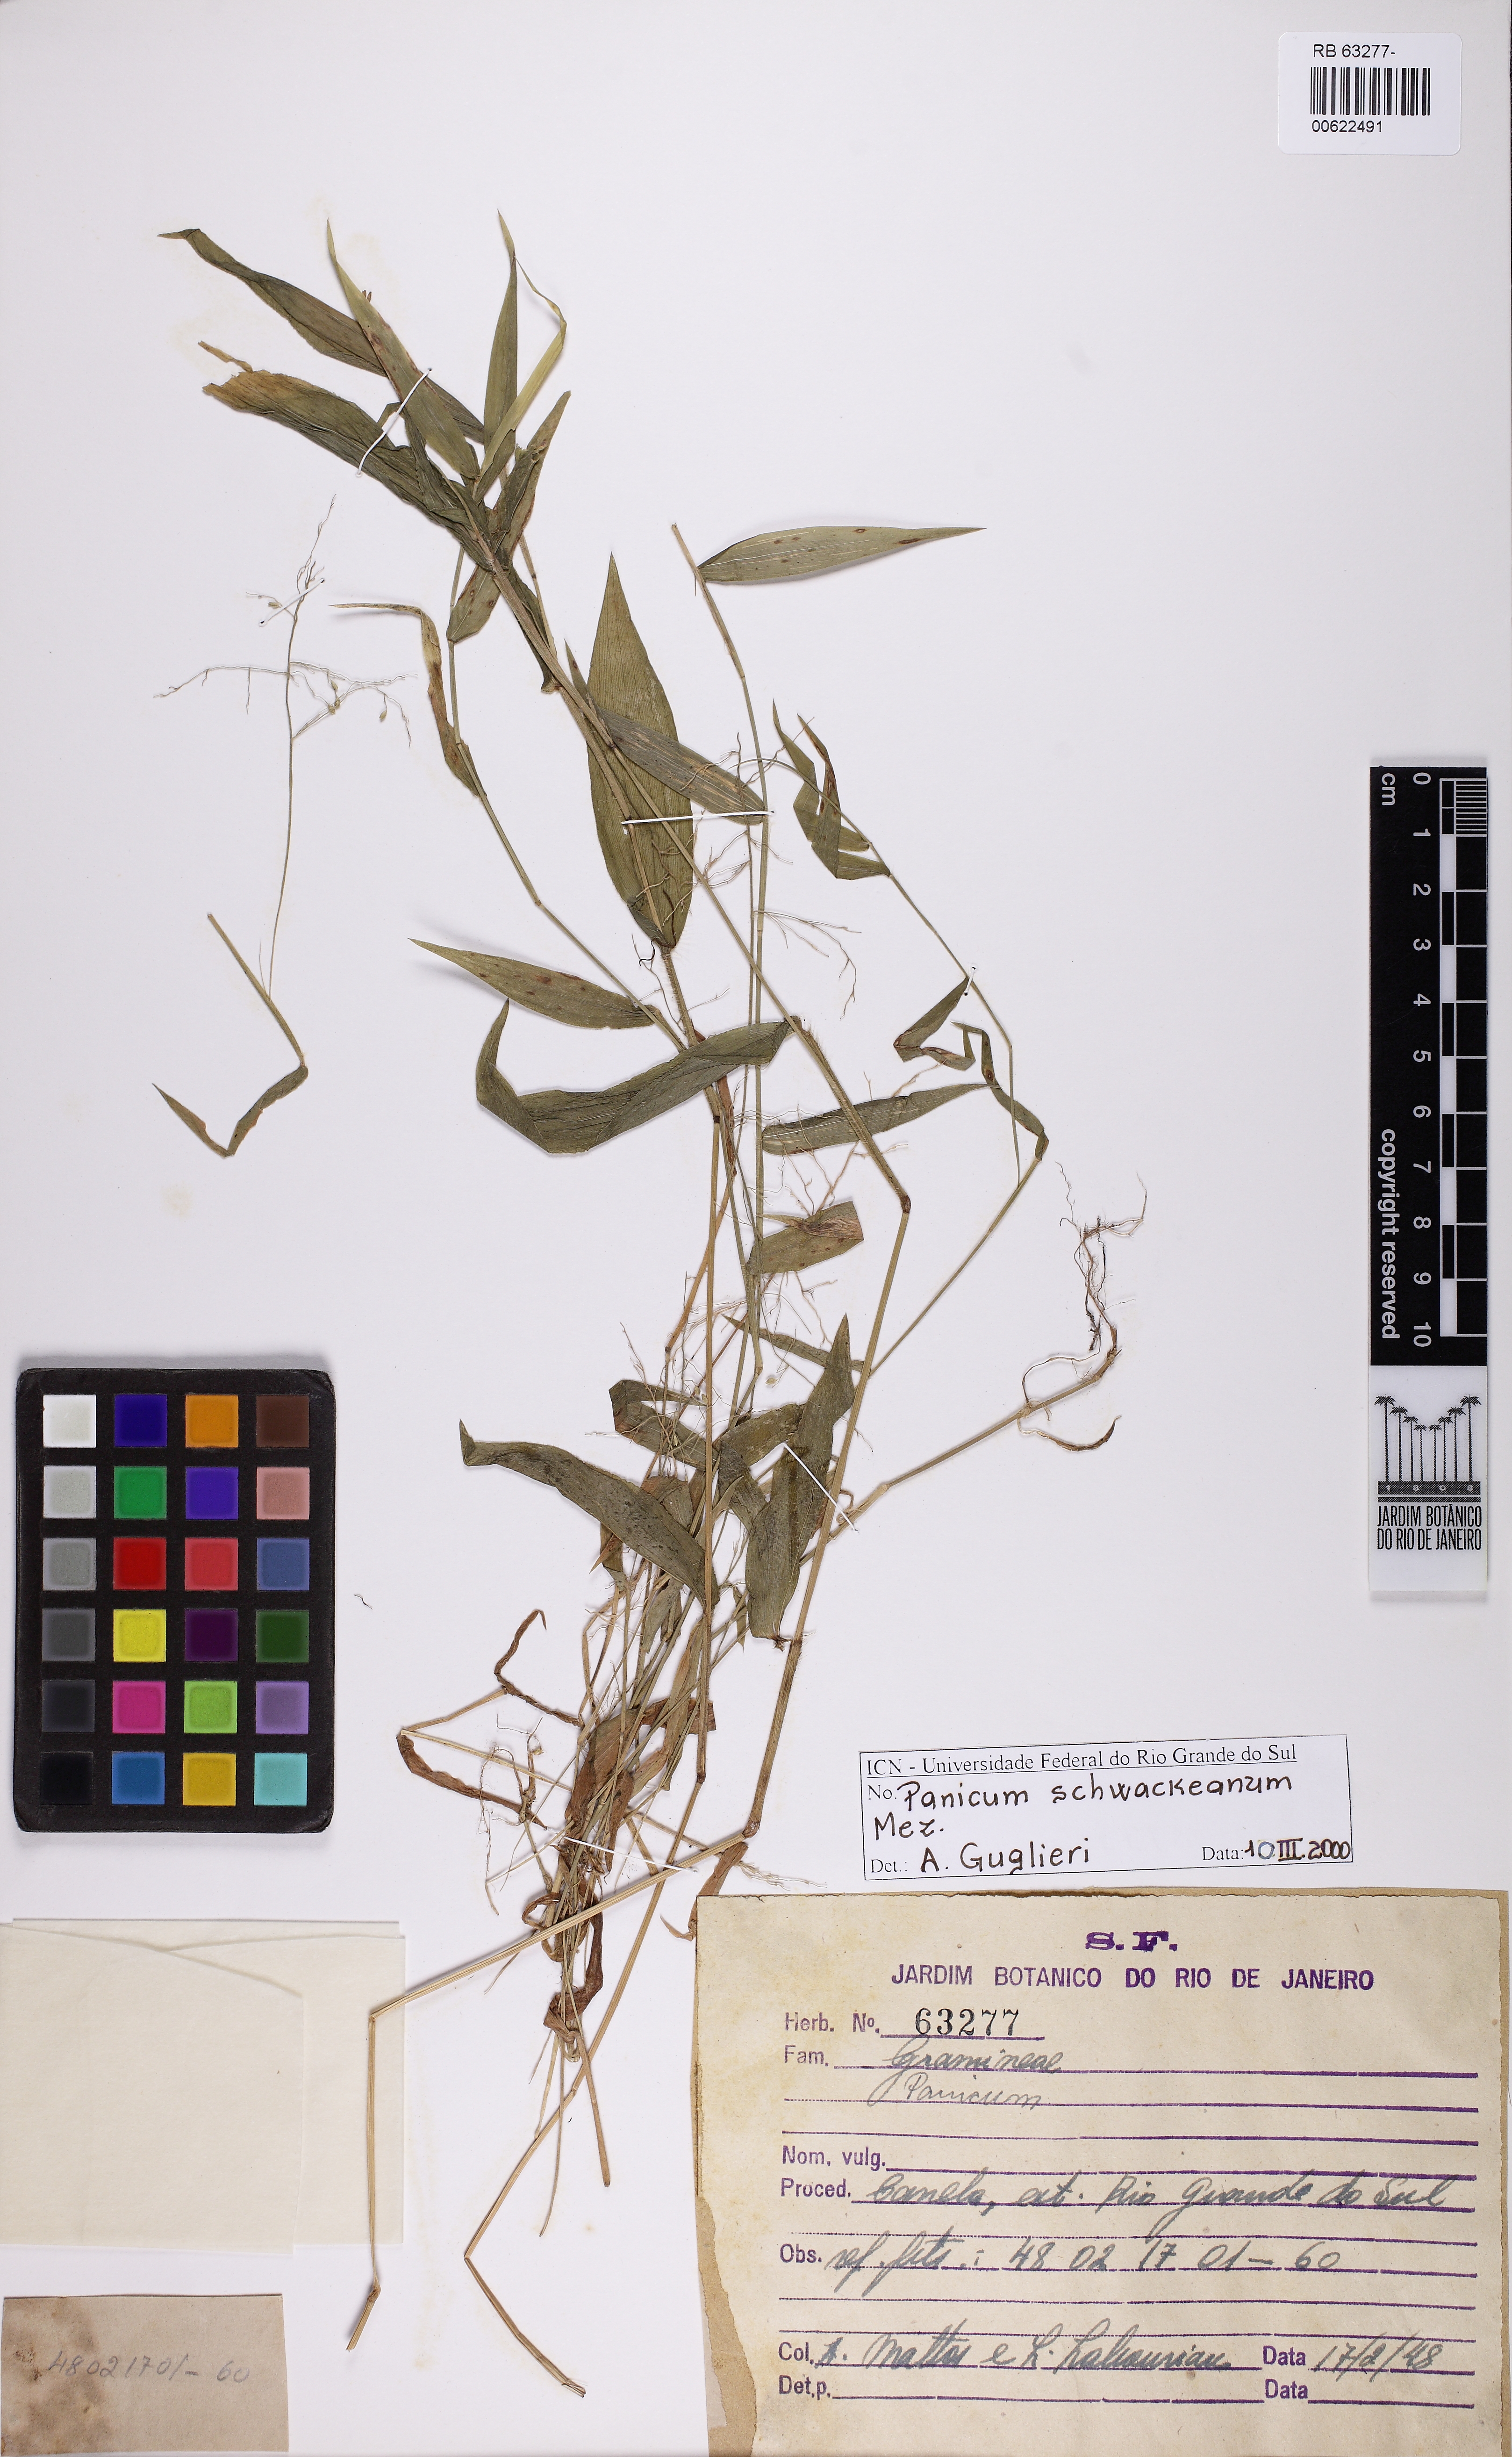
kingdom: Plantae
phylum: Tracheophyta
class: Liliopsida
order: Poales
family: Poaceae
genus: Trichanthecium
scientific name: Trichanthecium schwackeanum
